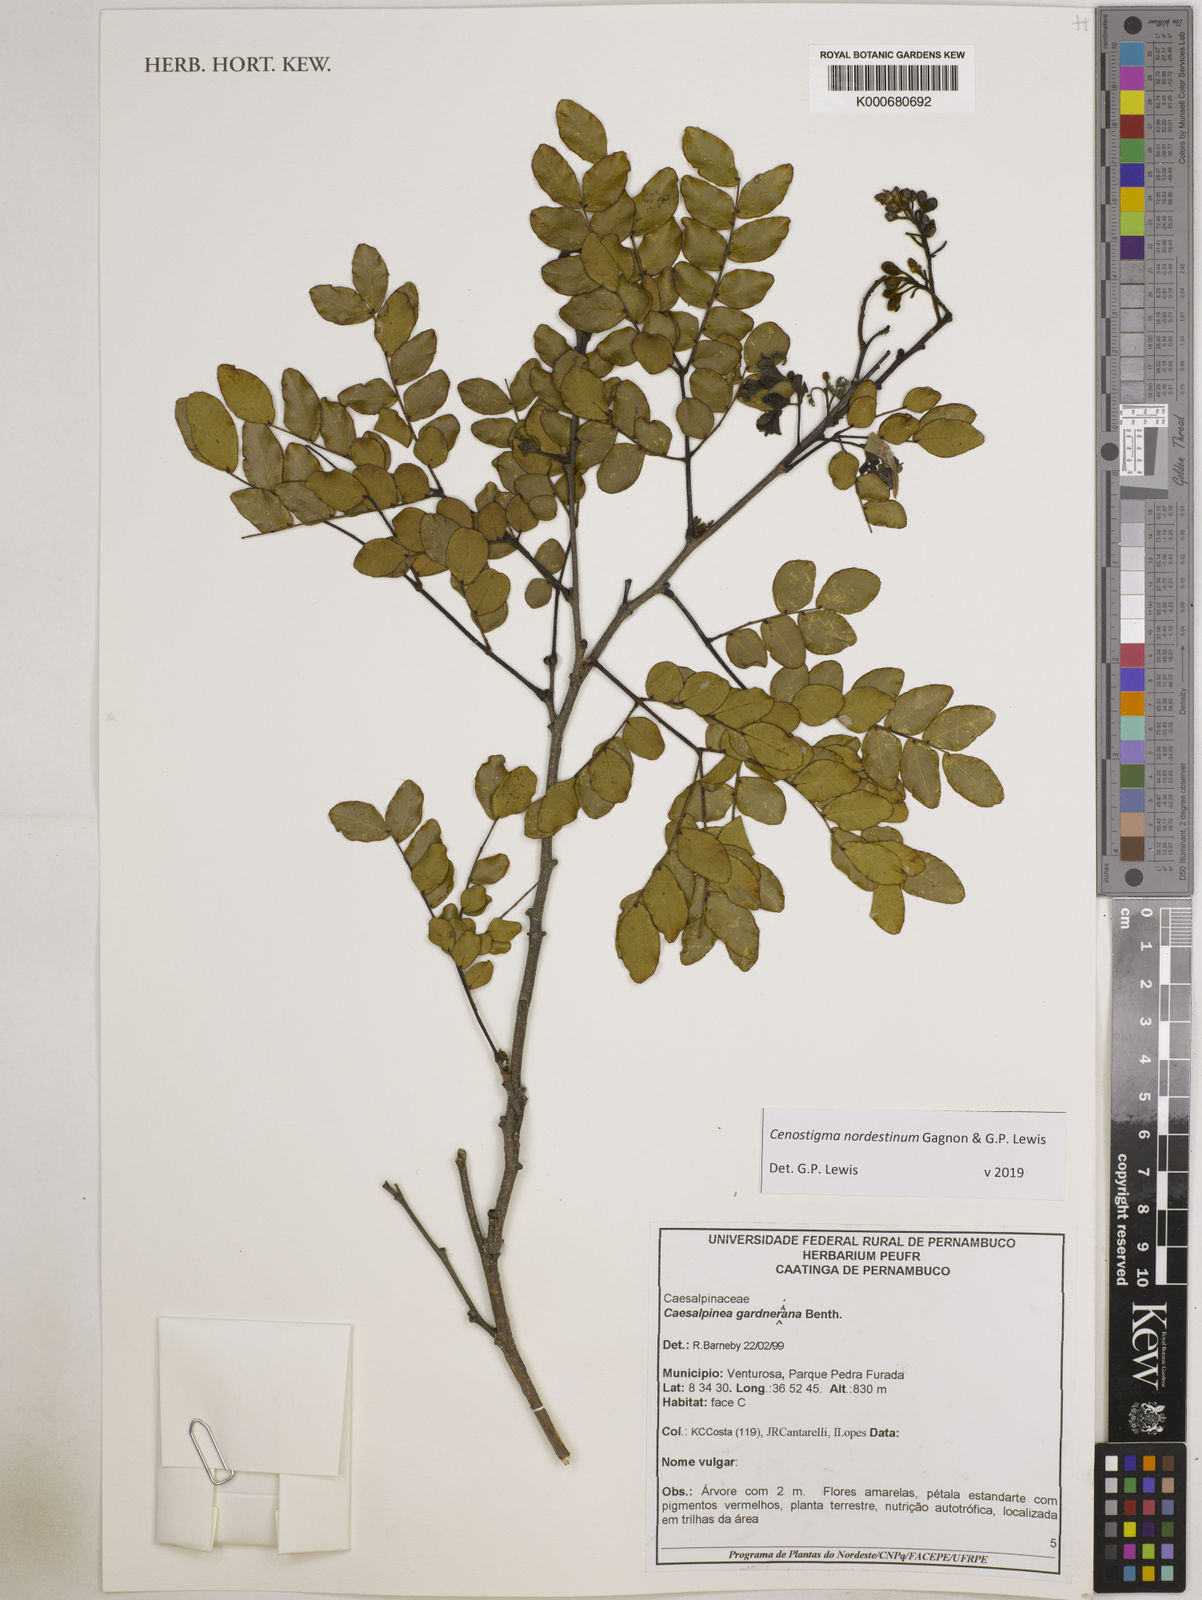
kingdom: Plantae
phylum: Tracheophyta
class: Magnoliopsida
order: Fabales
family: Fabaceae
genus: Cenostigma
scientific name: Cenostigma nordestinum
